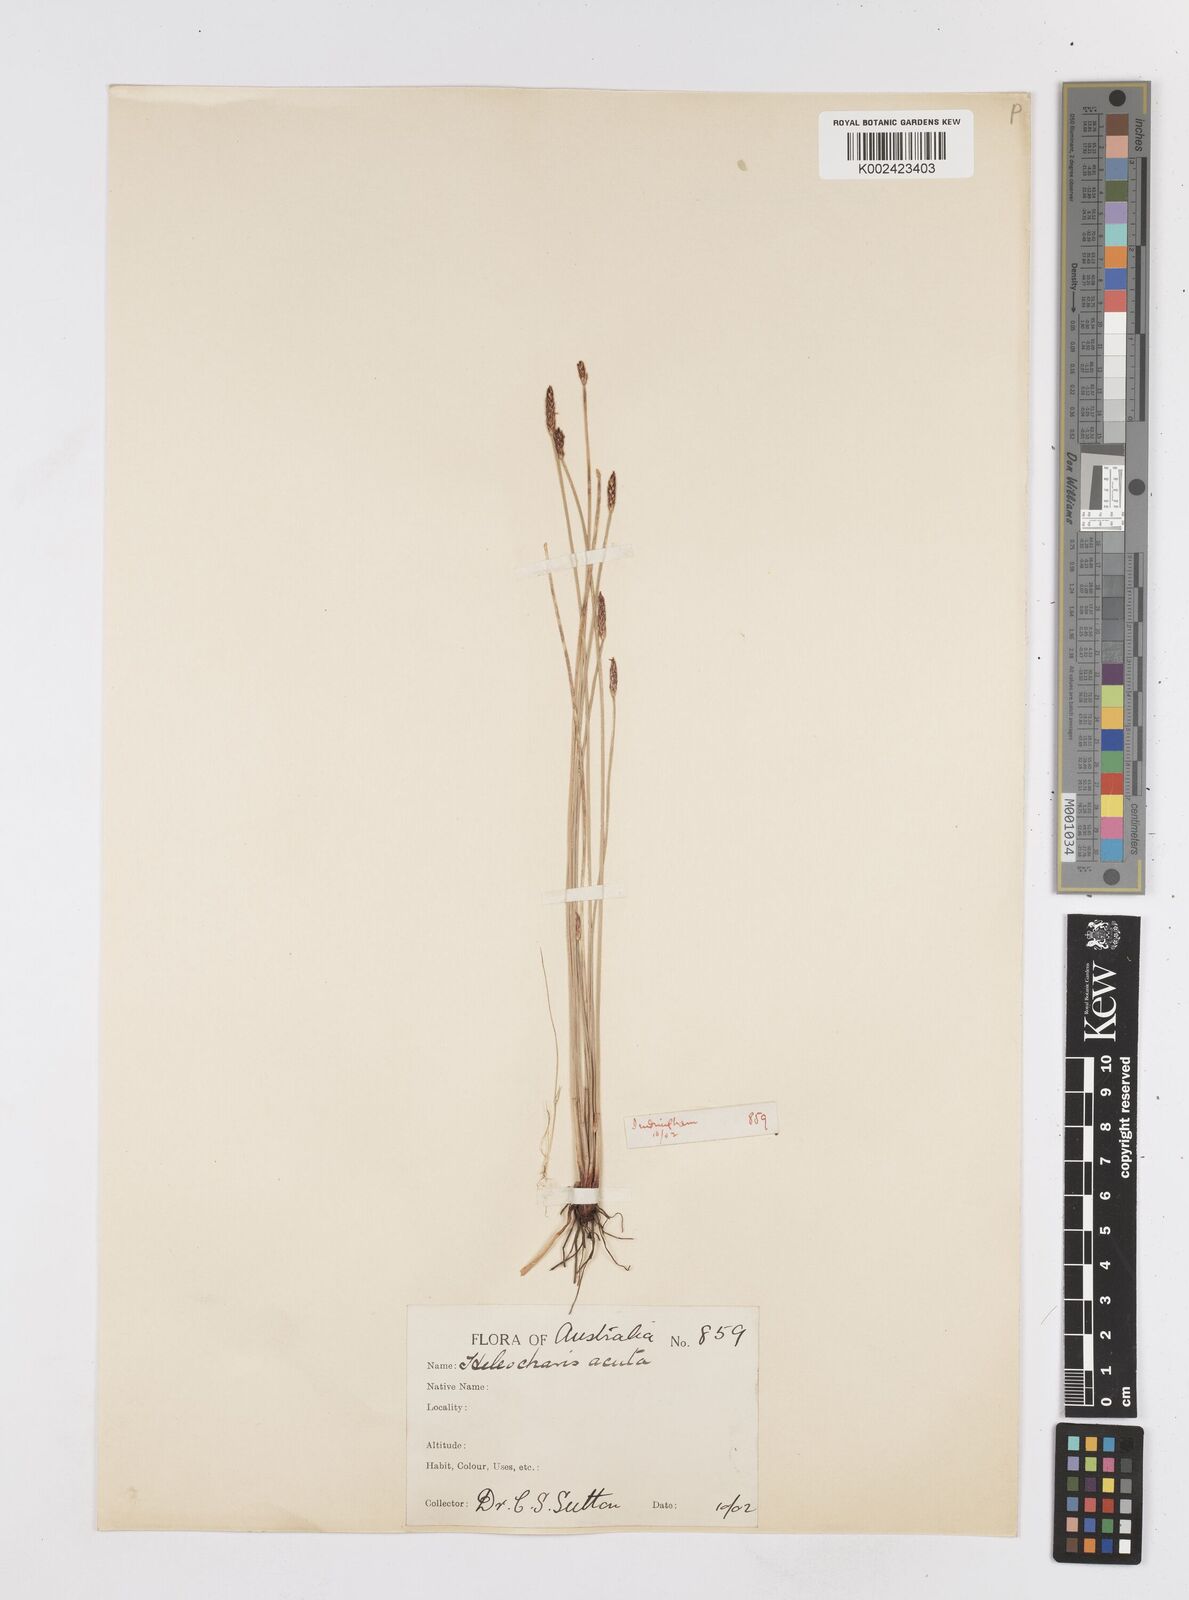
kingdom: Plantae
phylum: Tracheophyta
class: Liliopsida
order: Poales
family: Cyperaceae
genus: Eleocharis
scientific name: Eleocharis acuta
